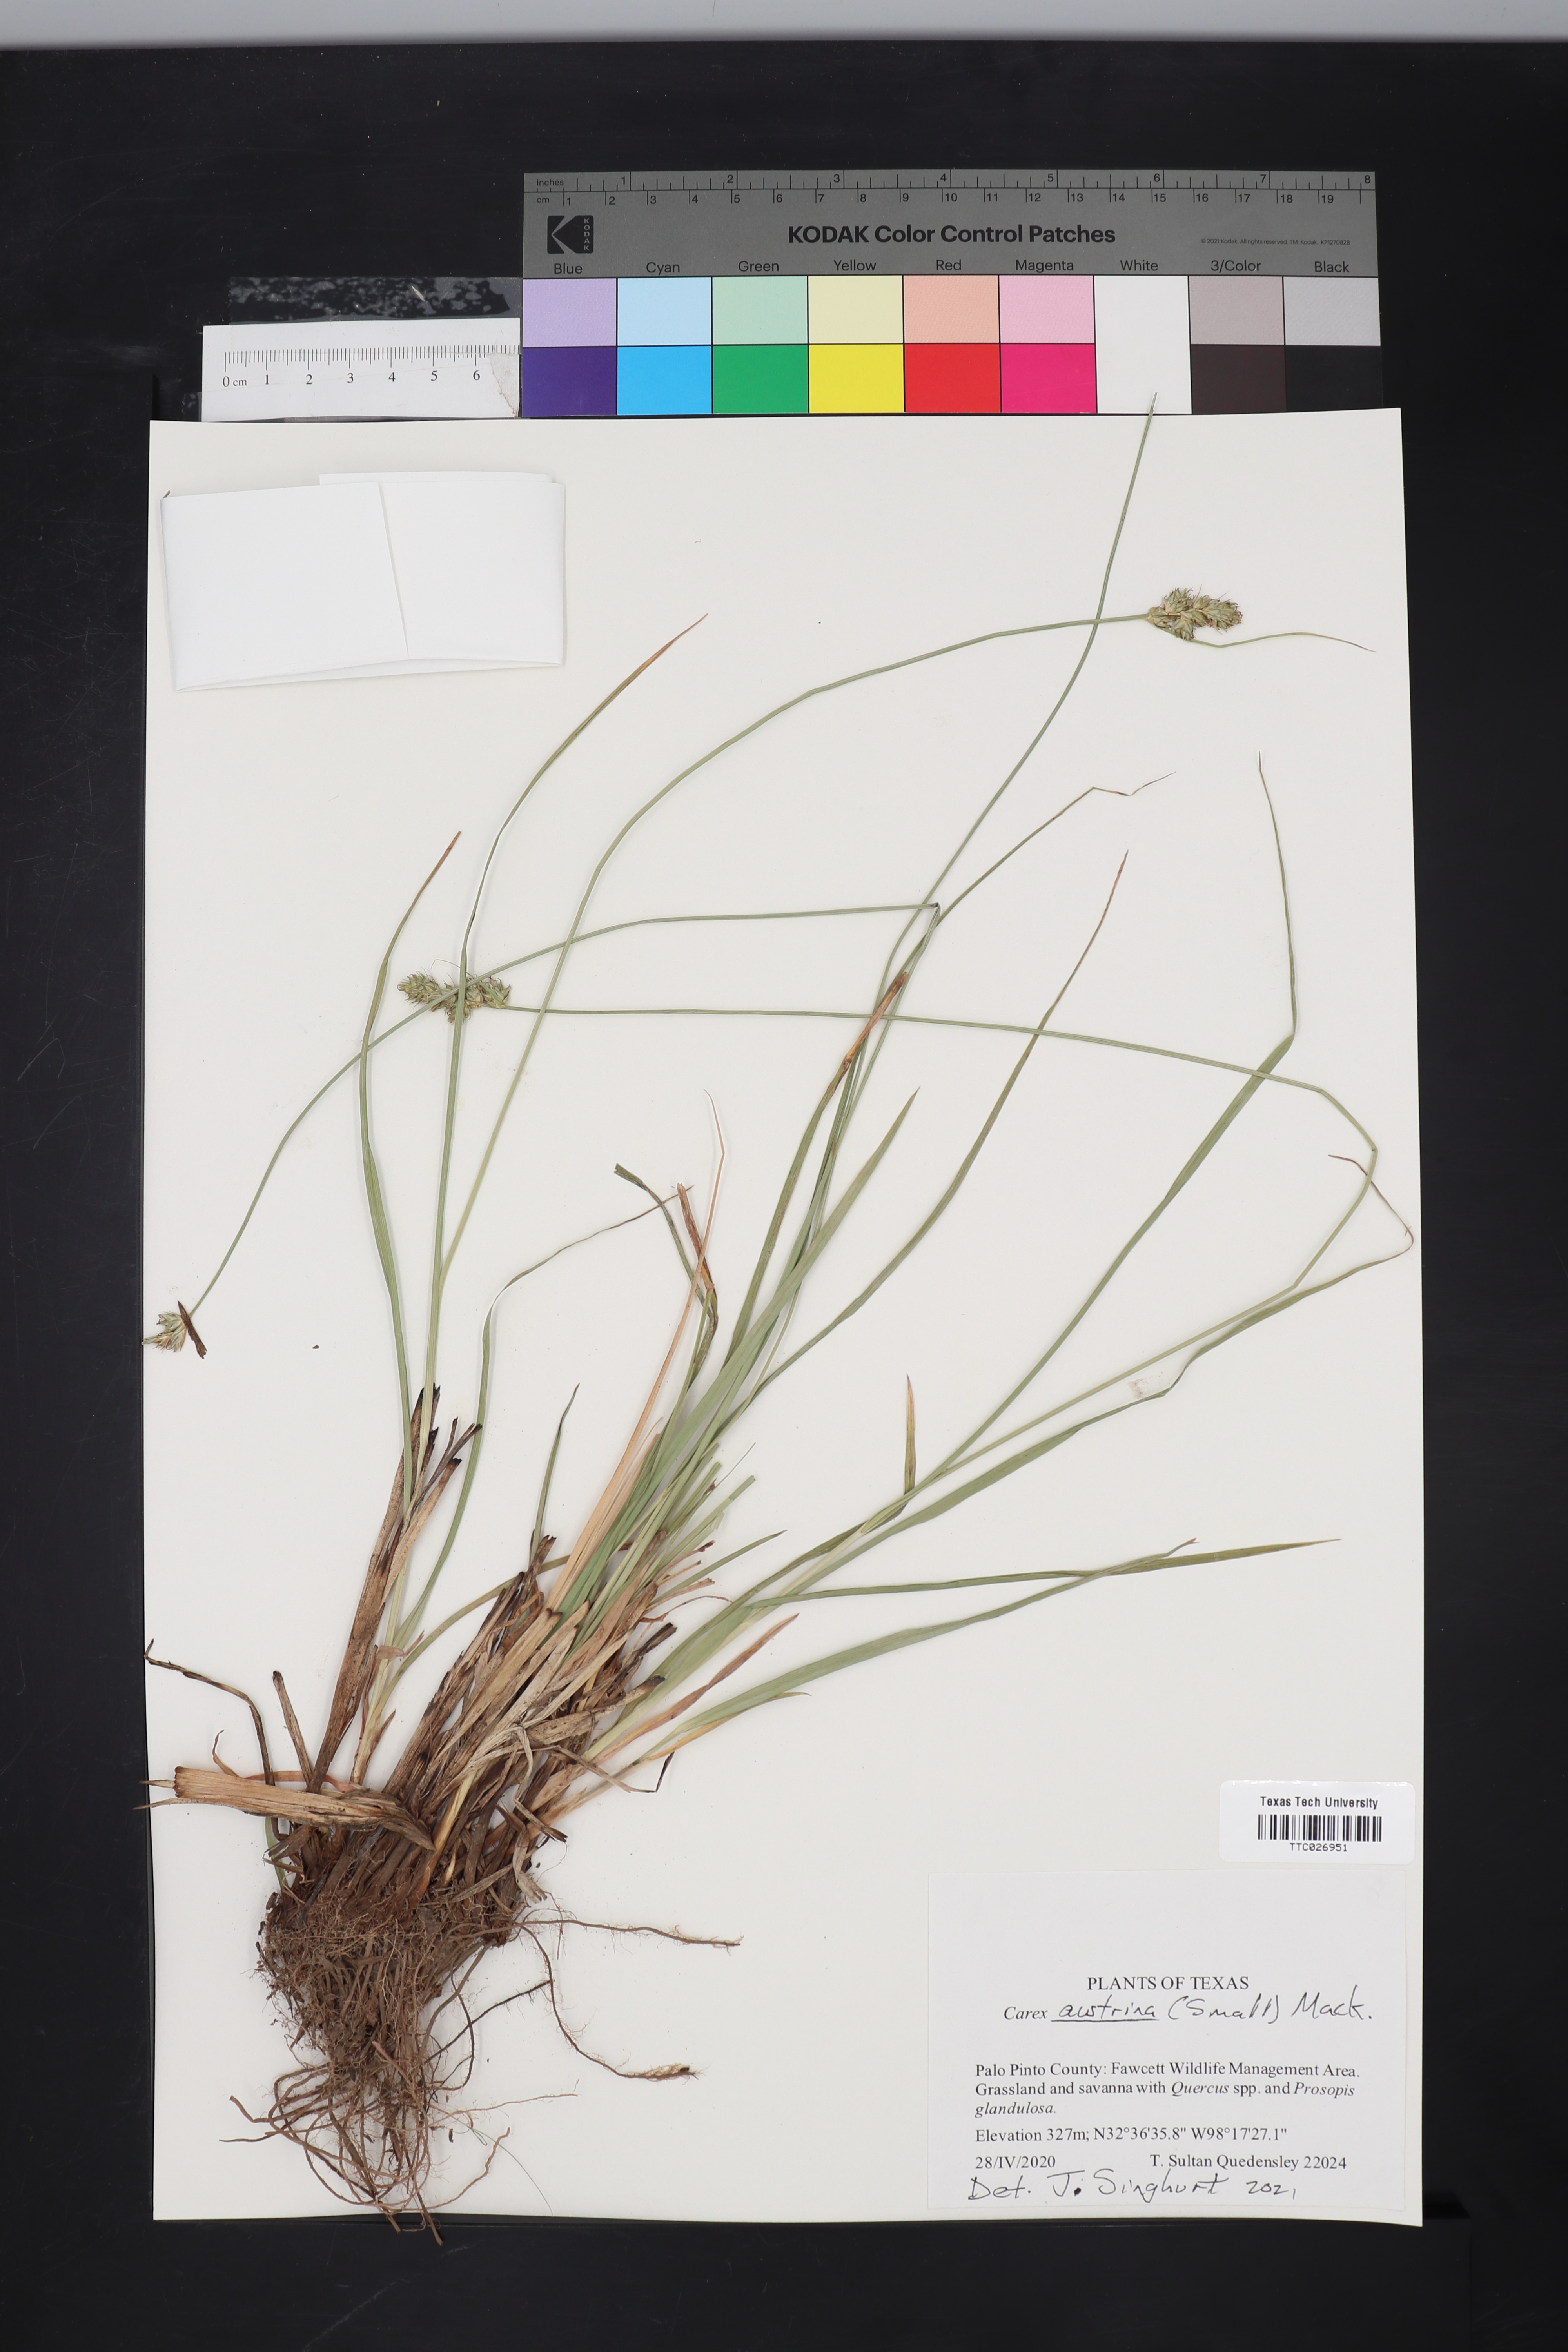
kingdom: Plantae
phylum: Tracheophyta
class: Liliopsida
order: Poales
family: Cyperaceae
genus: Carex
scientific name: Carex austrina
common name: Southern sedge
